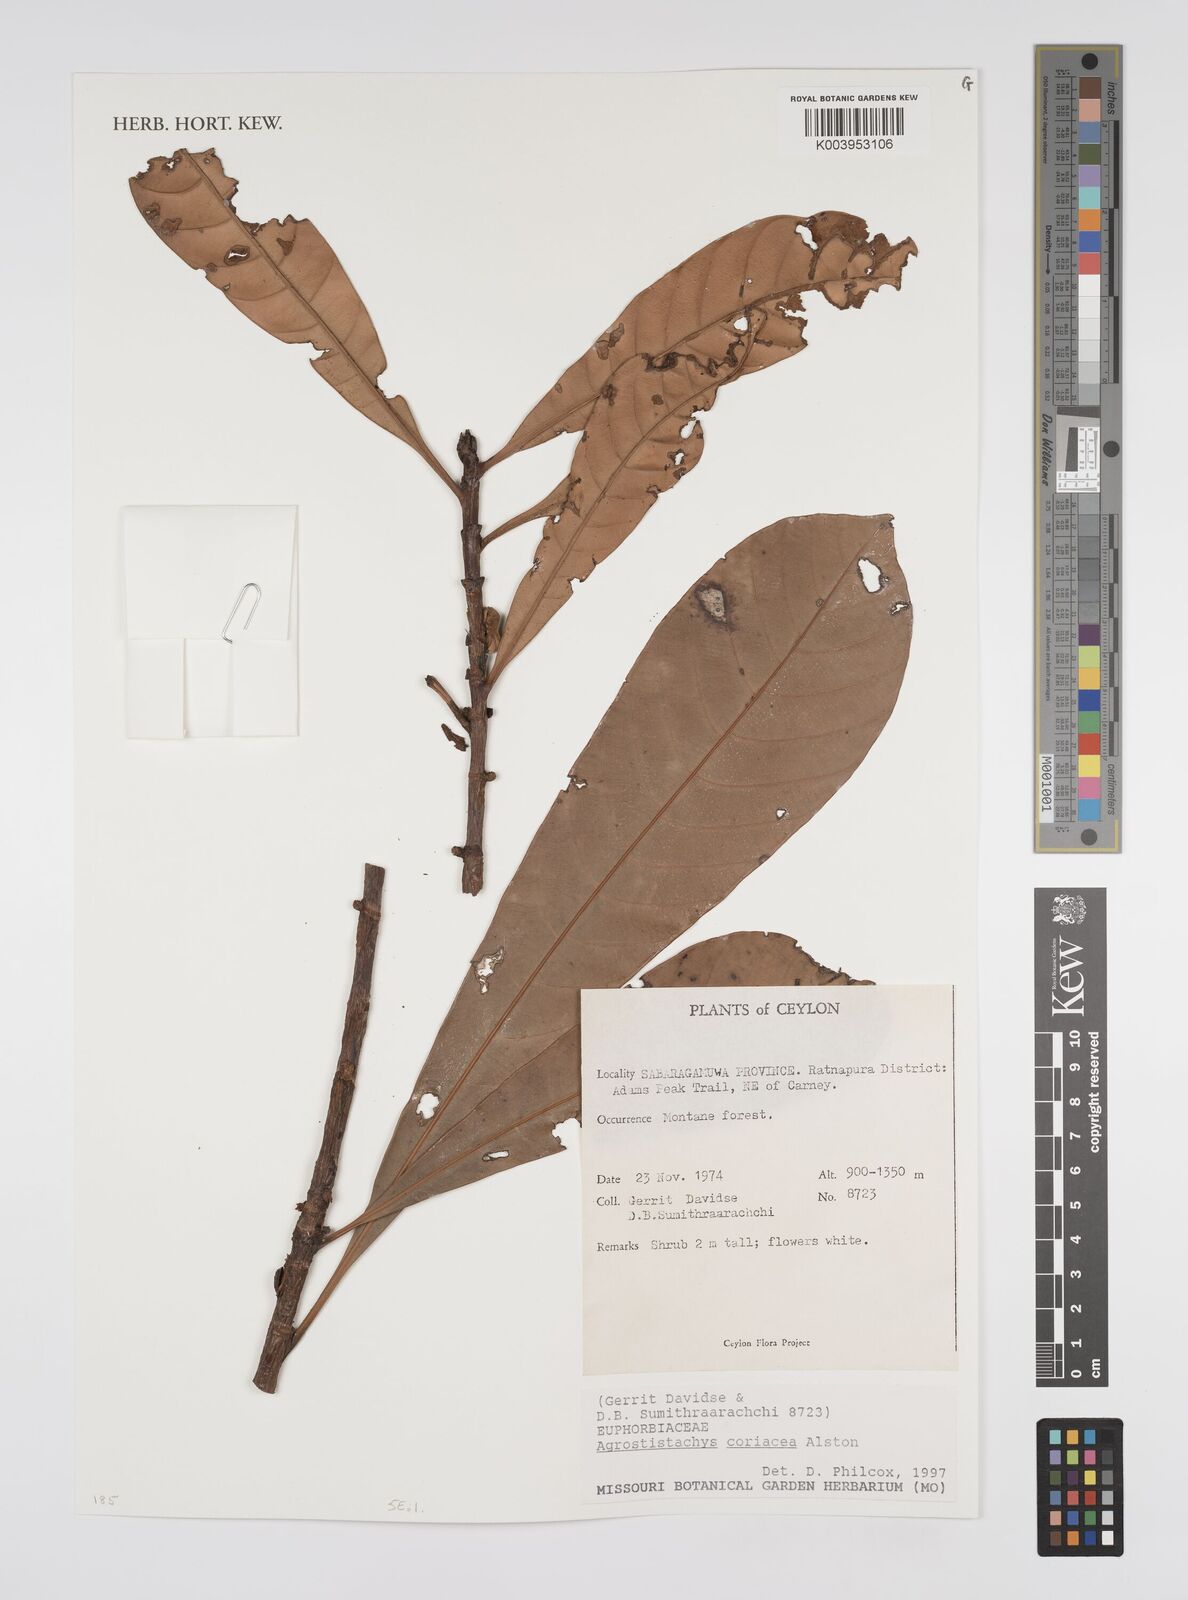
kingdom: Plantae
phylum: Tracheophyta
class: Magnoliopsida
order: Malpighiales
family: Euphorbiaceae
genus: Agrostistachys
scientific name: Agrostistachys borneensis
